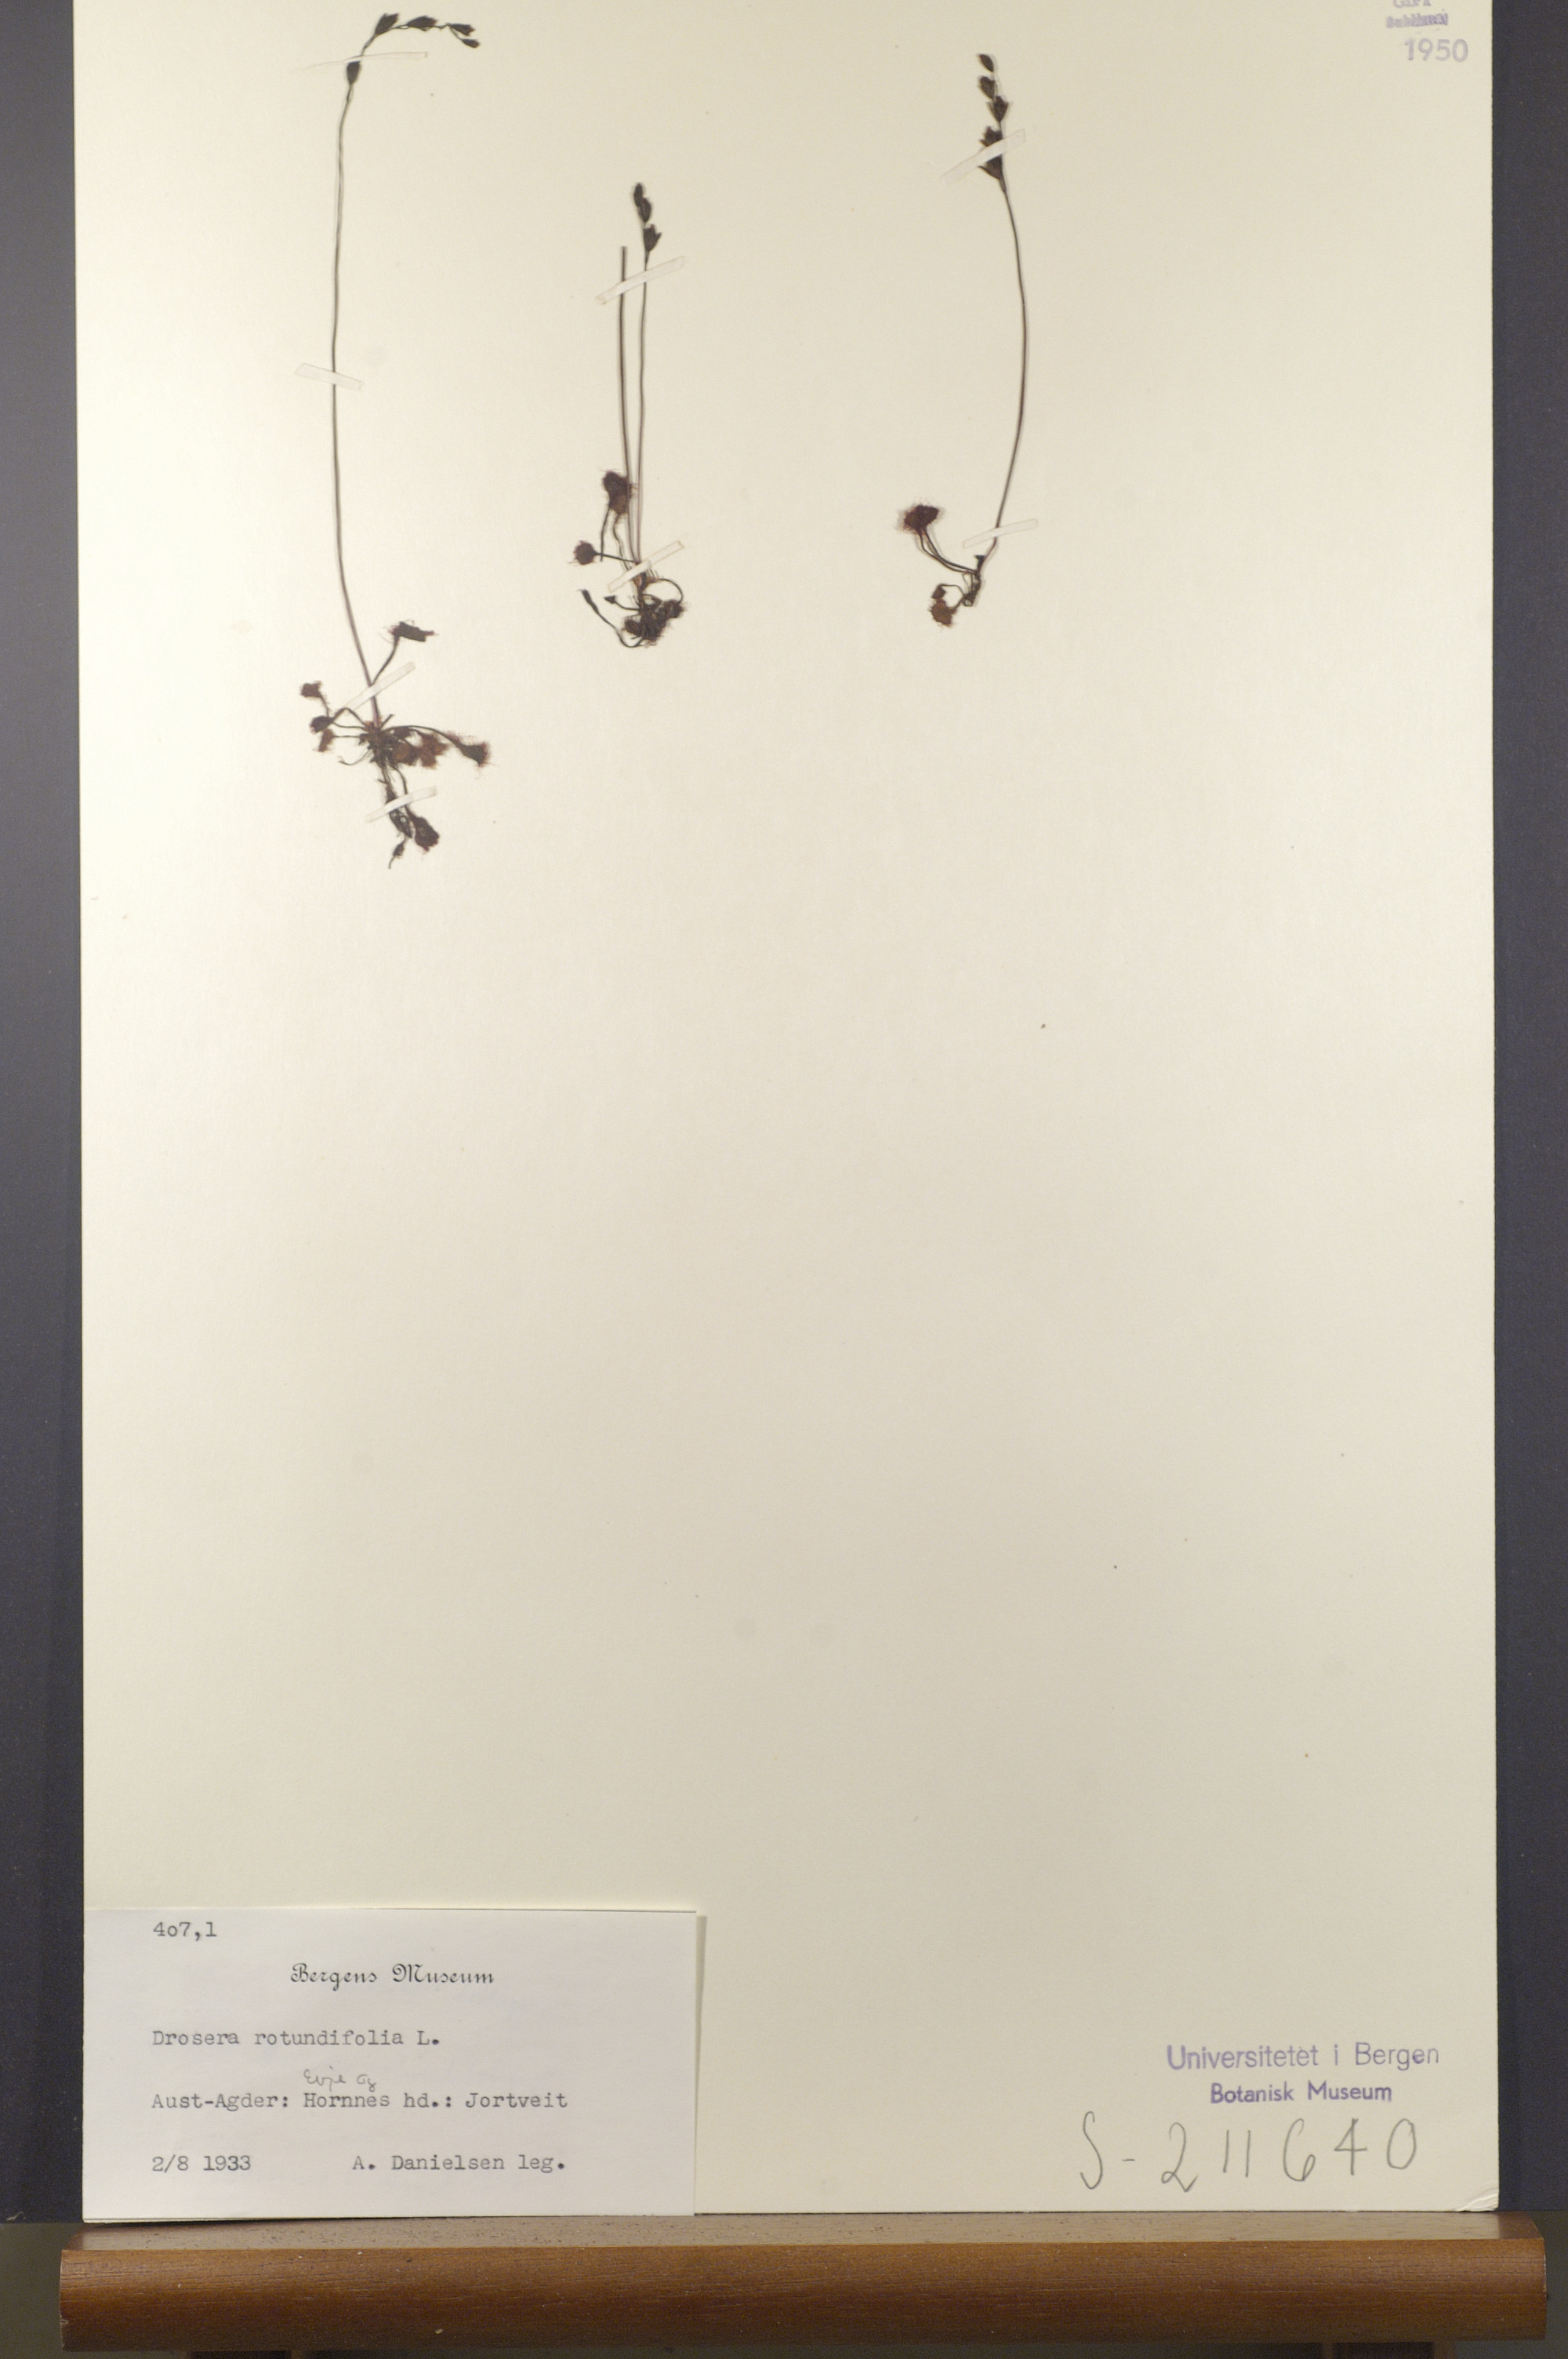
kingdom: Plantae
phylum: Tracheophyta
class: Magnoliopsida
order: Caryophyllales
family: Droseraceae
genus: Drosera
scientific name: Drosera rotundifolia
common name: Round-leaved sundew
